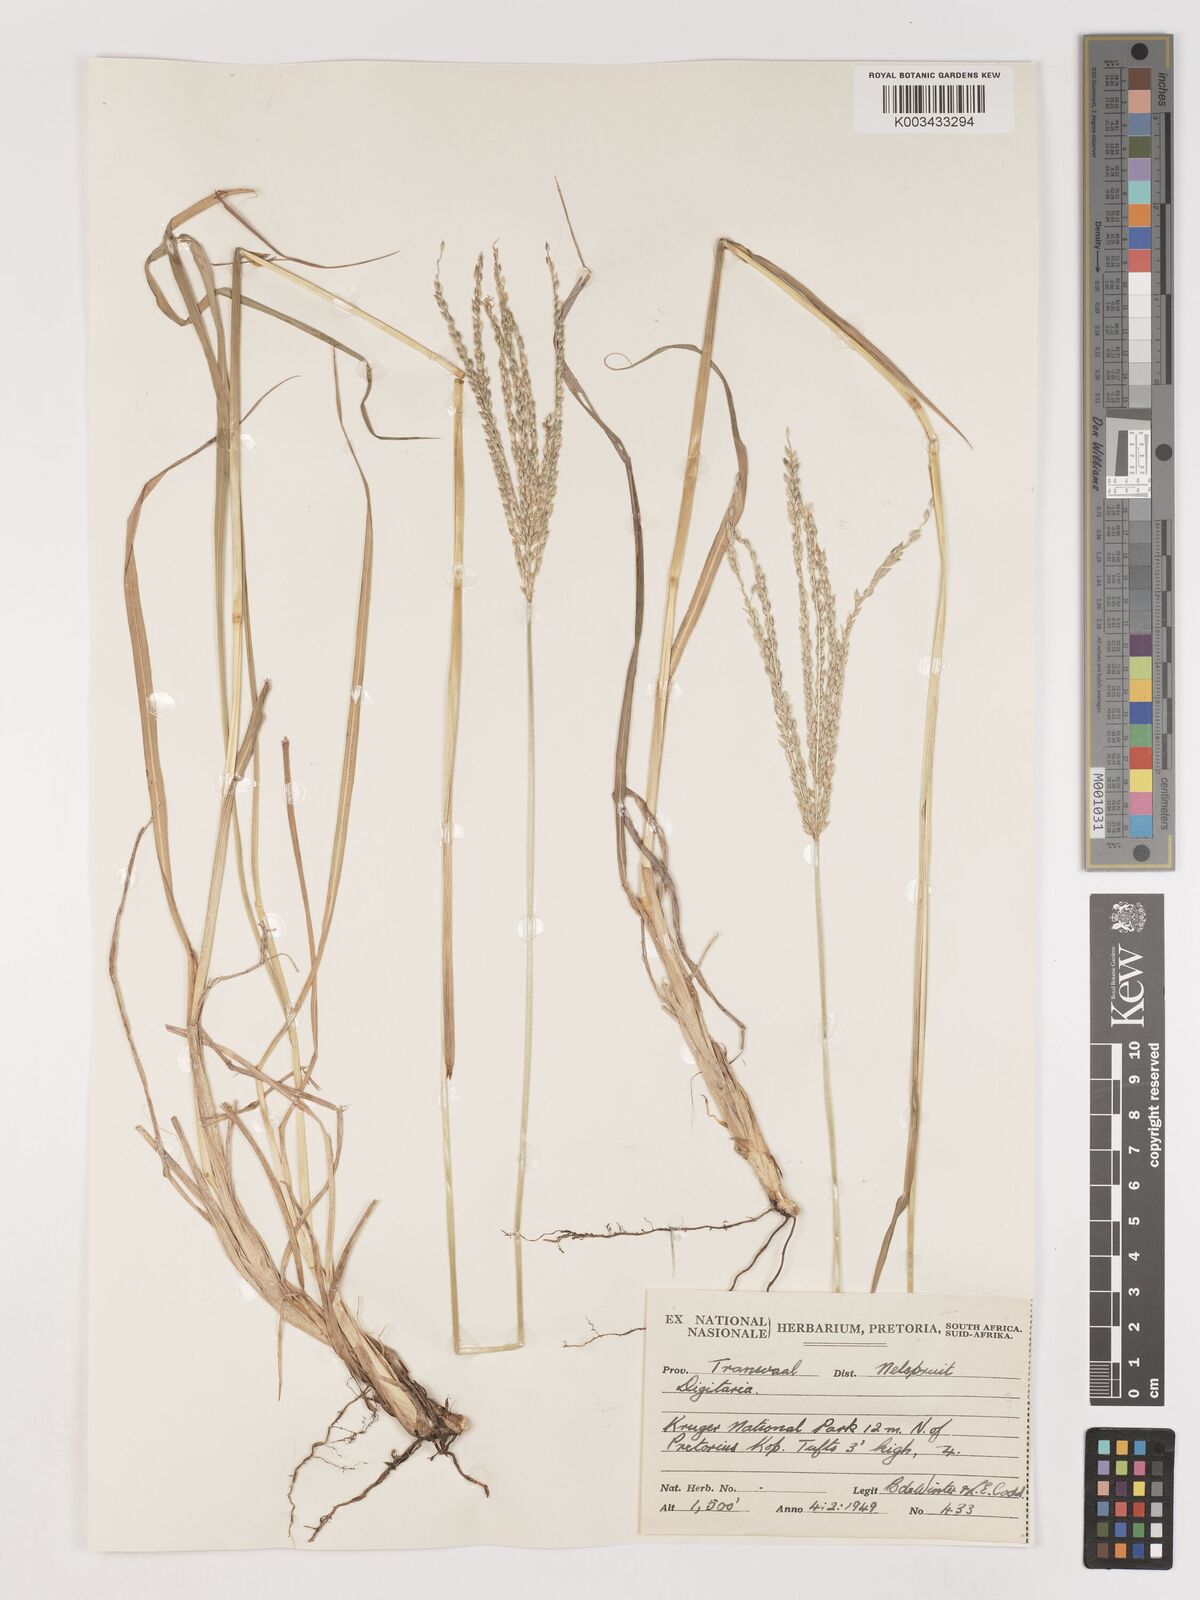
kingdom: Plantae
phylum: Tracheophyta
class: Liliopsida
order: Poales
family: Poaceae
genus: Digitaria
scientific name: Digitaria eriantha
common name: Digitgrass
